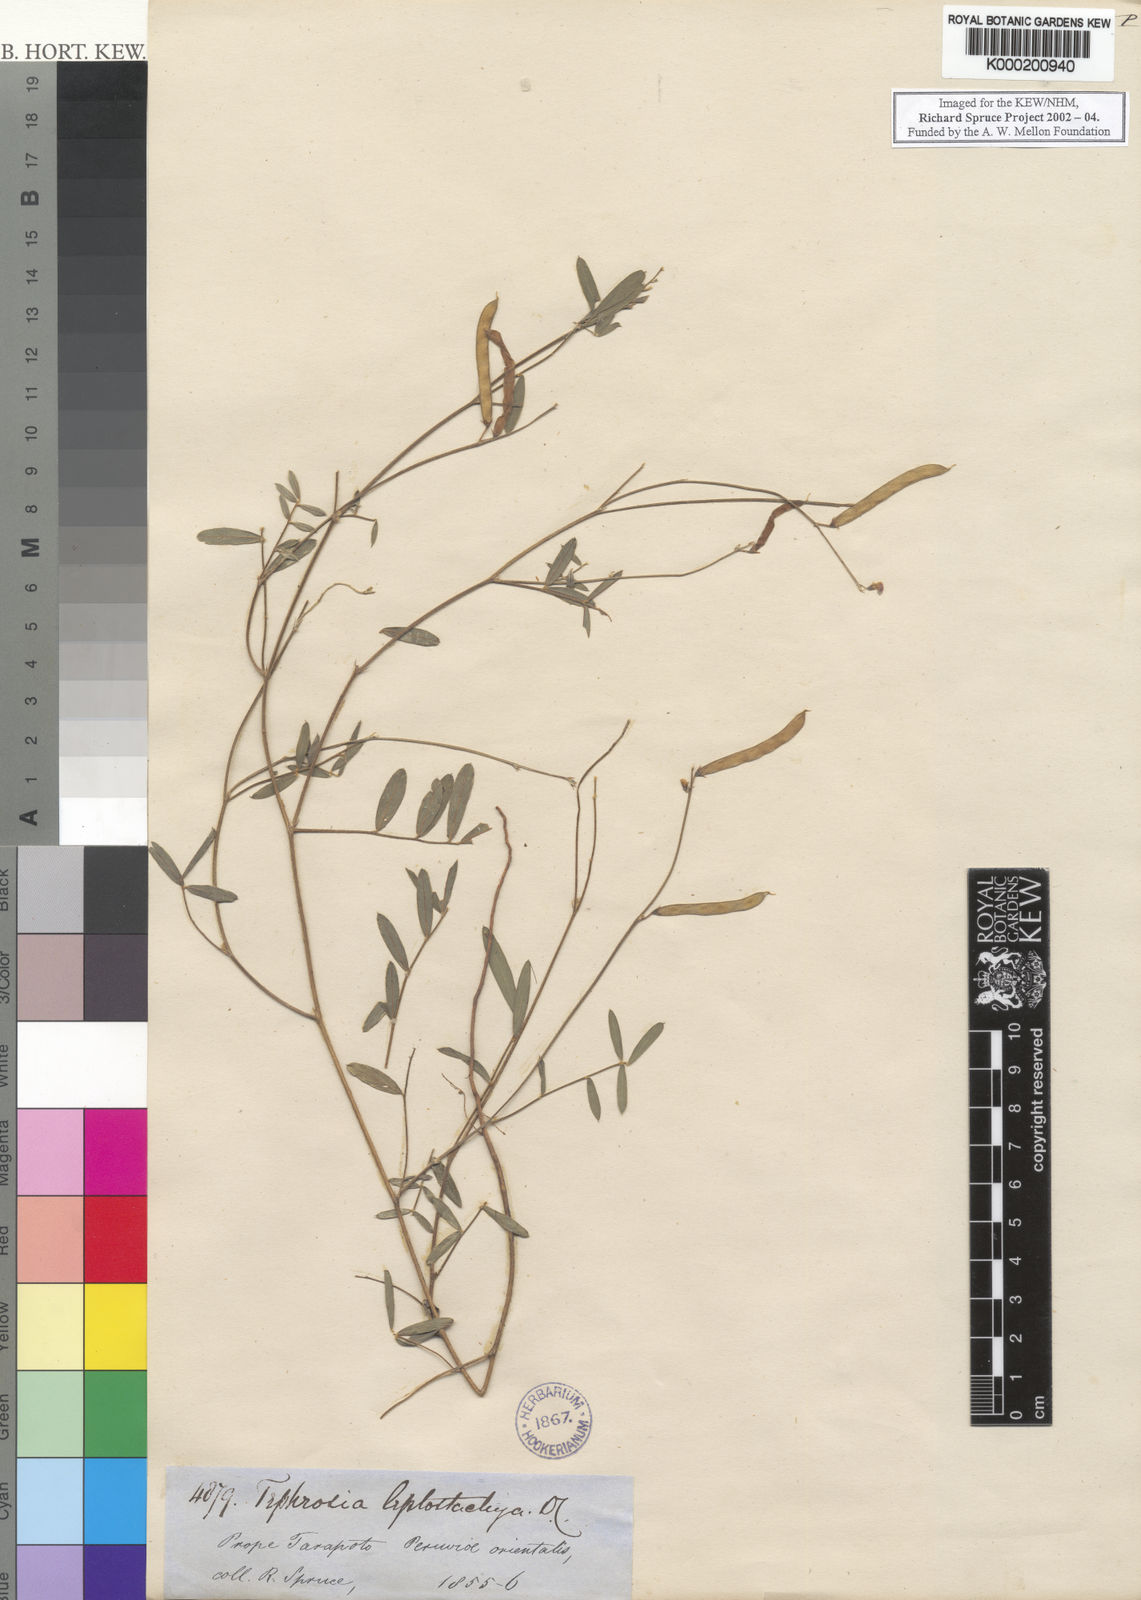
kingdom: Plantae
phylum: Tracheophyta
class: Magnoliopsida
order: Fabales
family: Fabaceae
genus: Tephrosia
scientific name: Tephrosia purpurea
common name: Fishpoison
